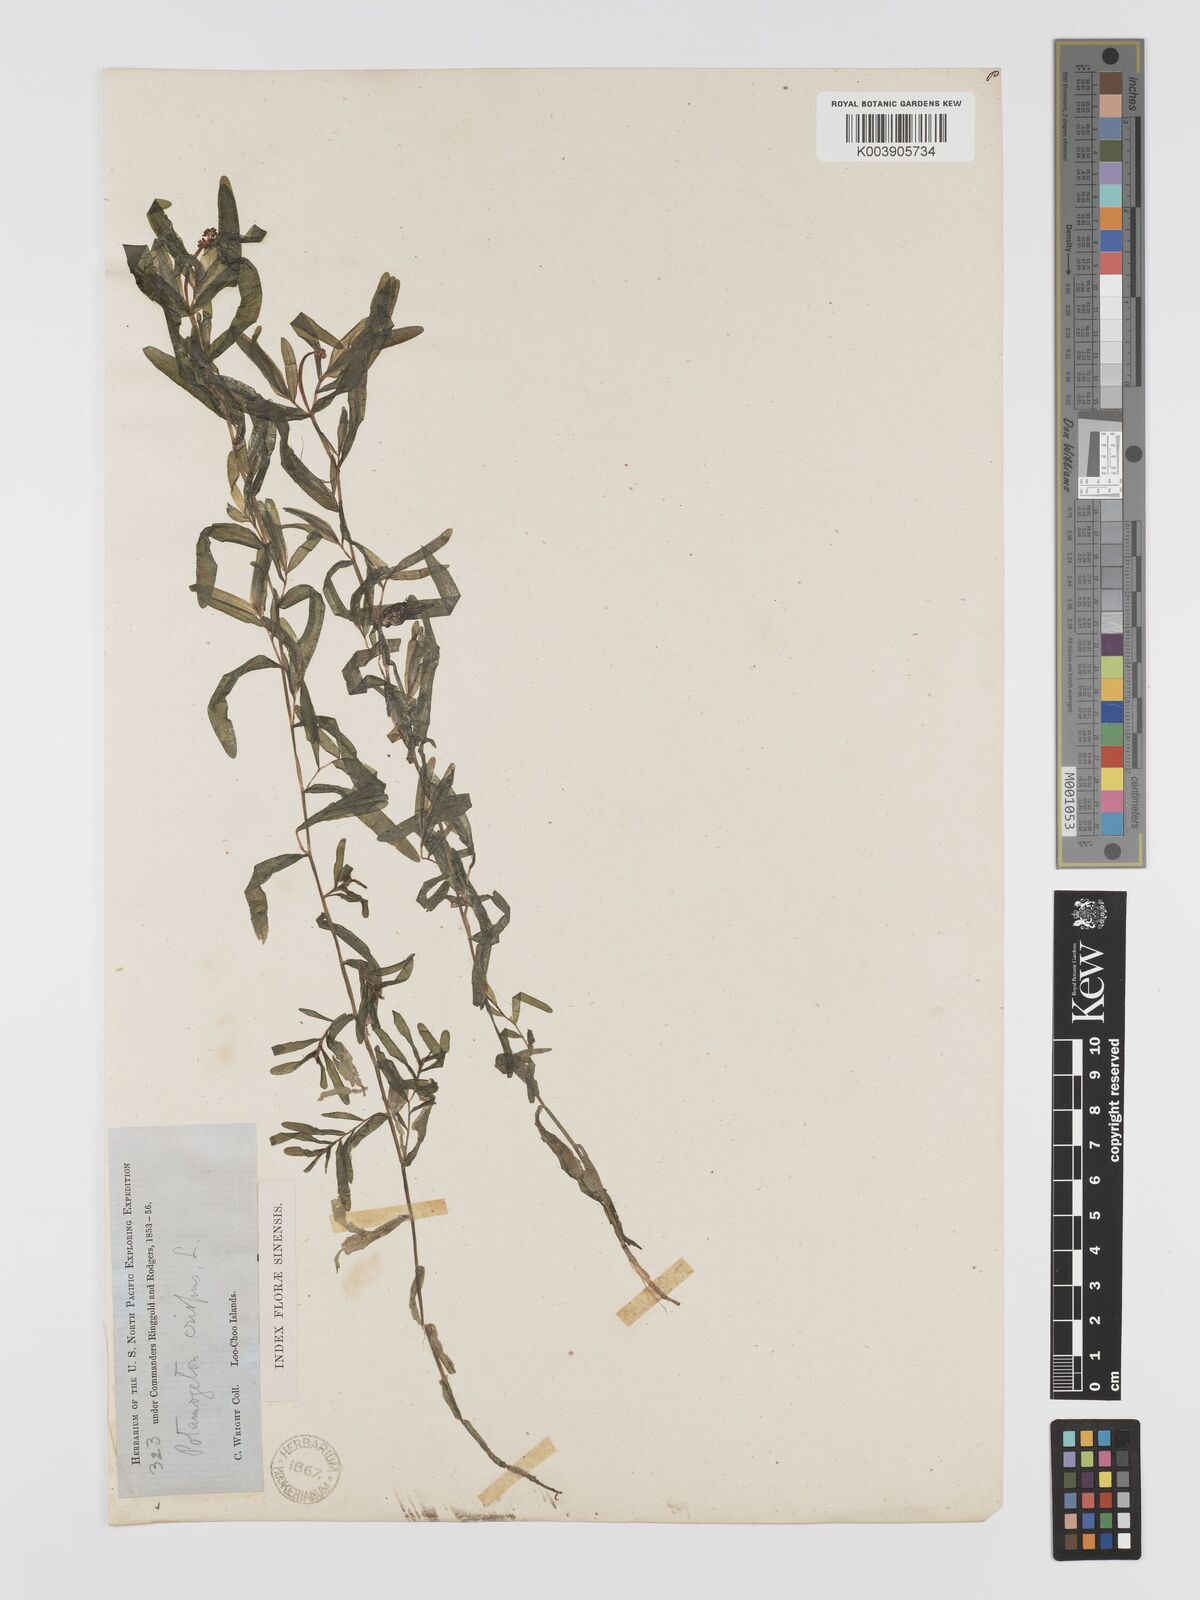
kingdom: Plantae
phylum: Tracheophyta
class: Liliopsida
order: Alismatales
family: Potamogetonaceae
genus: Potamogeton
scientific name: Potamogeton crispus
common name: Curled pondweed
